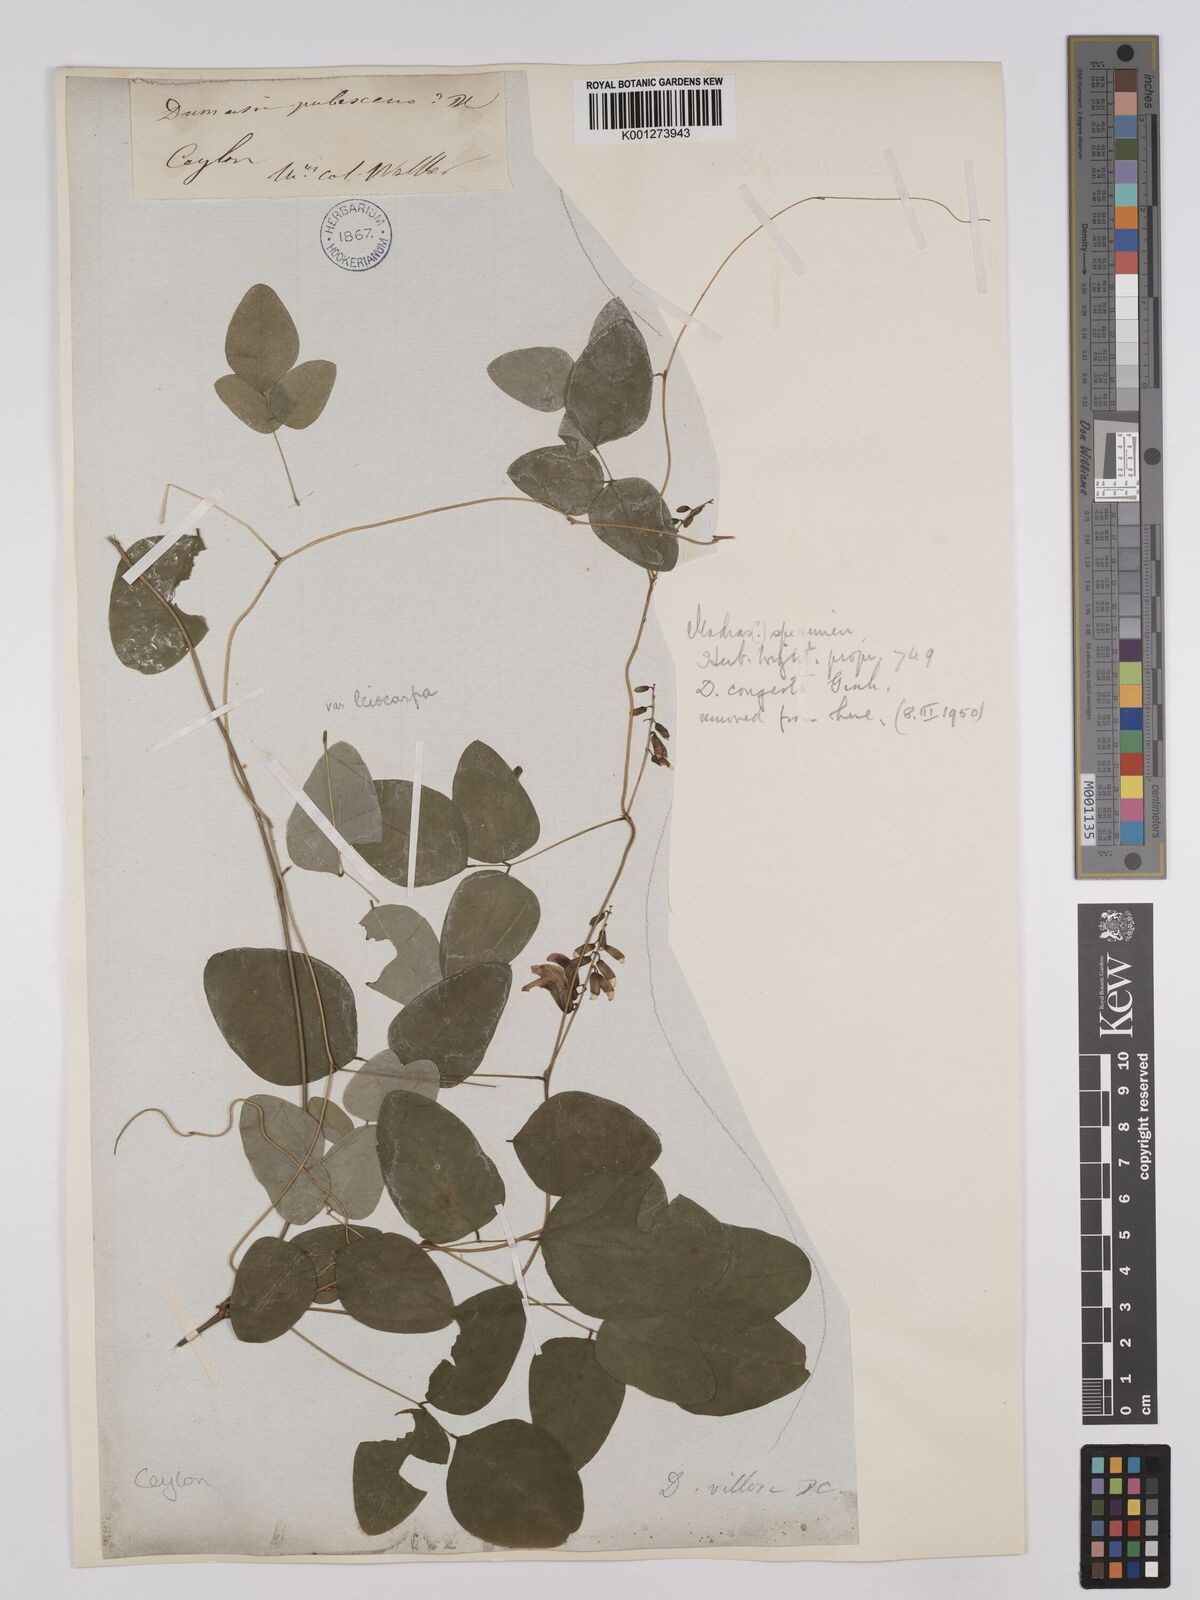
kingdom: Plantae
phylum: Tracheophyta
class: Magnoliopsida
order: Fabales
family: Fabaceae
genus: Dumasia
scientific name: Dumasia villosa
